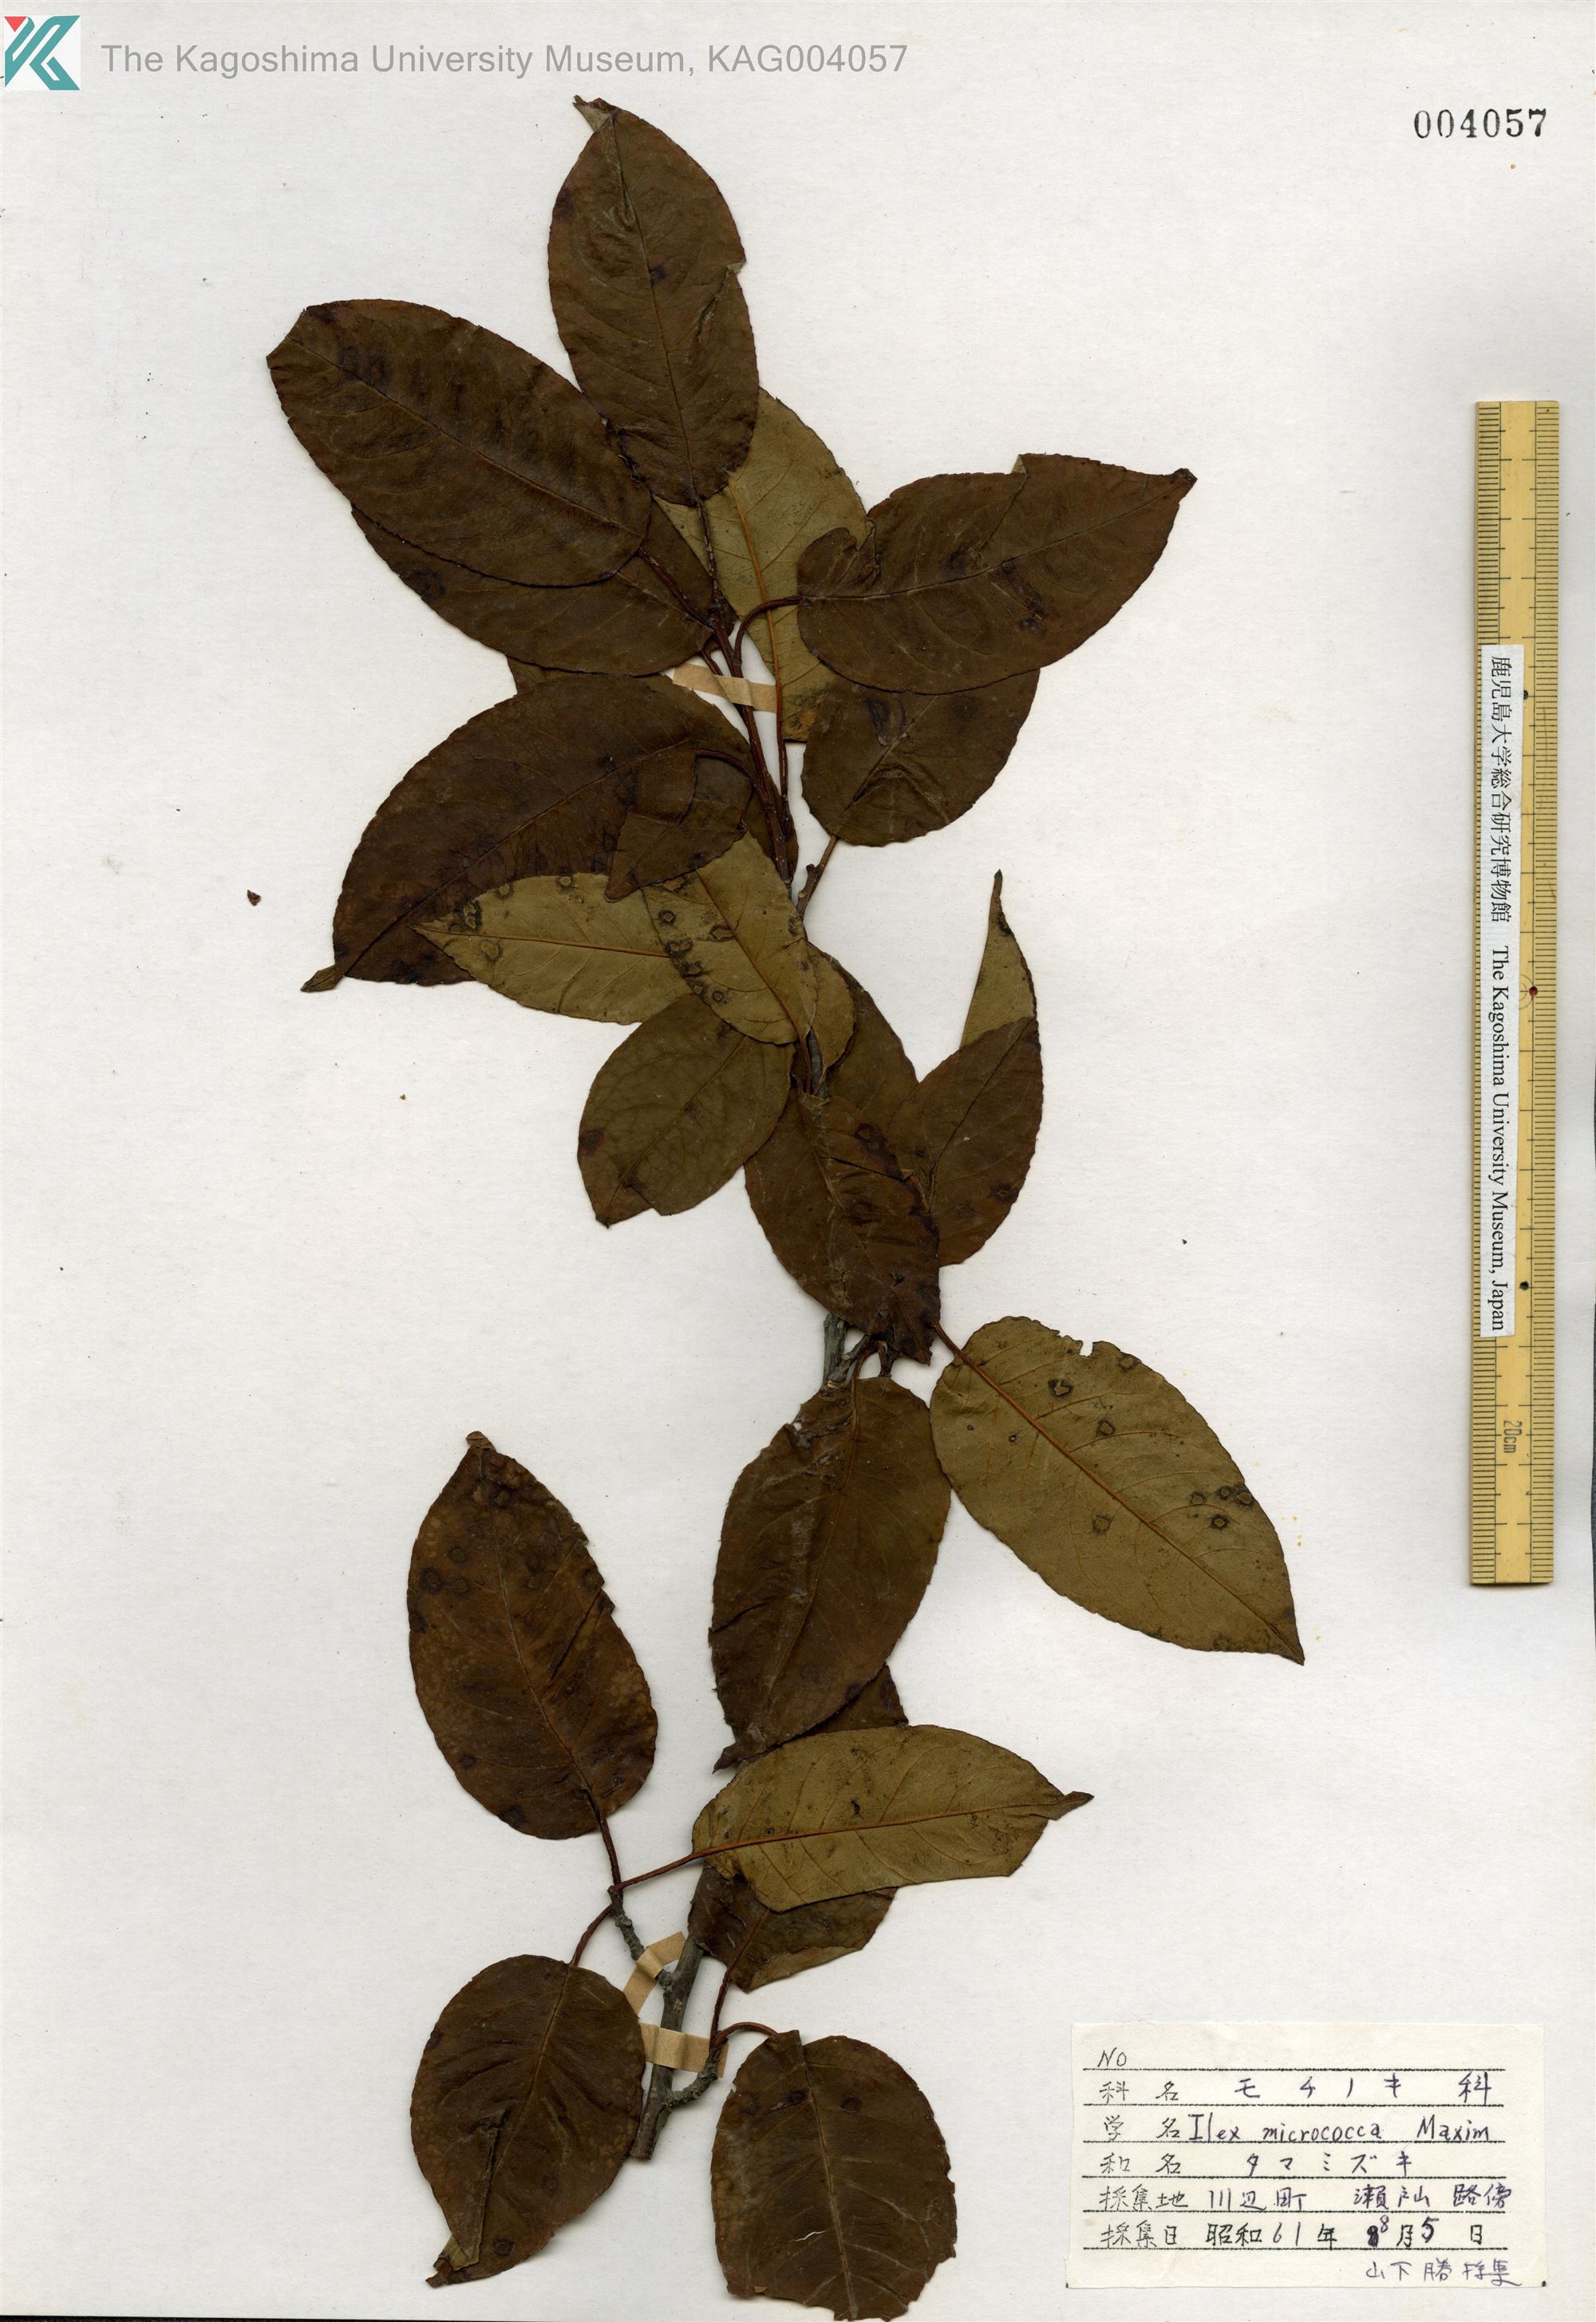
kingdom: Plantae
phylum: Tracheophyta
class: Magnoliopsida
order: Aquifoliales
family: Aquifoliaceae
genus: Ilex
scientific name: Ilex rotunda
